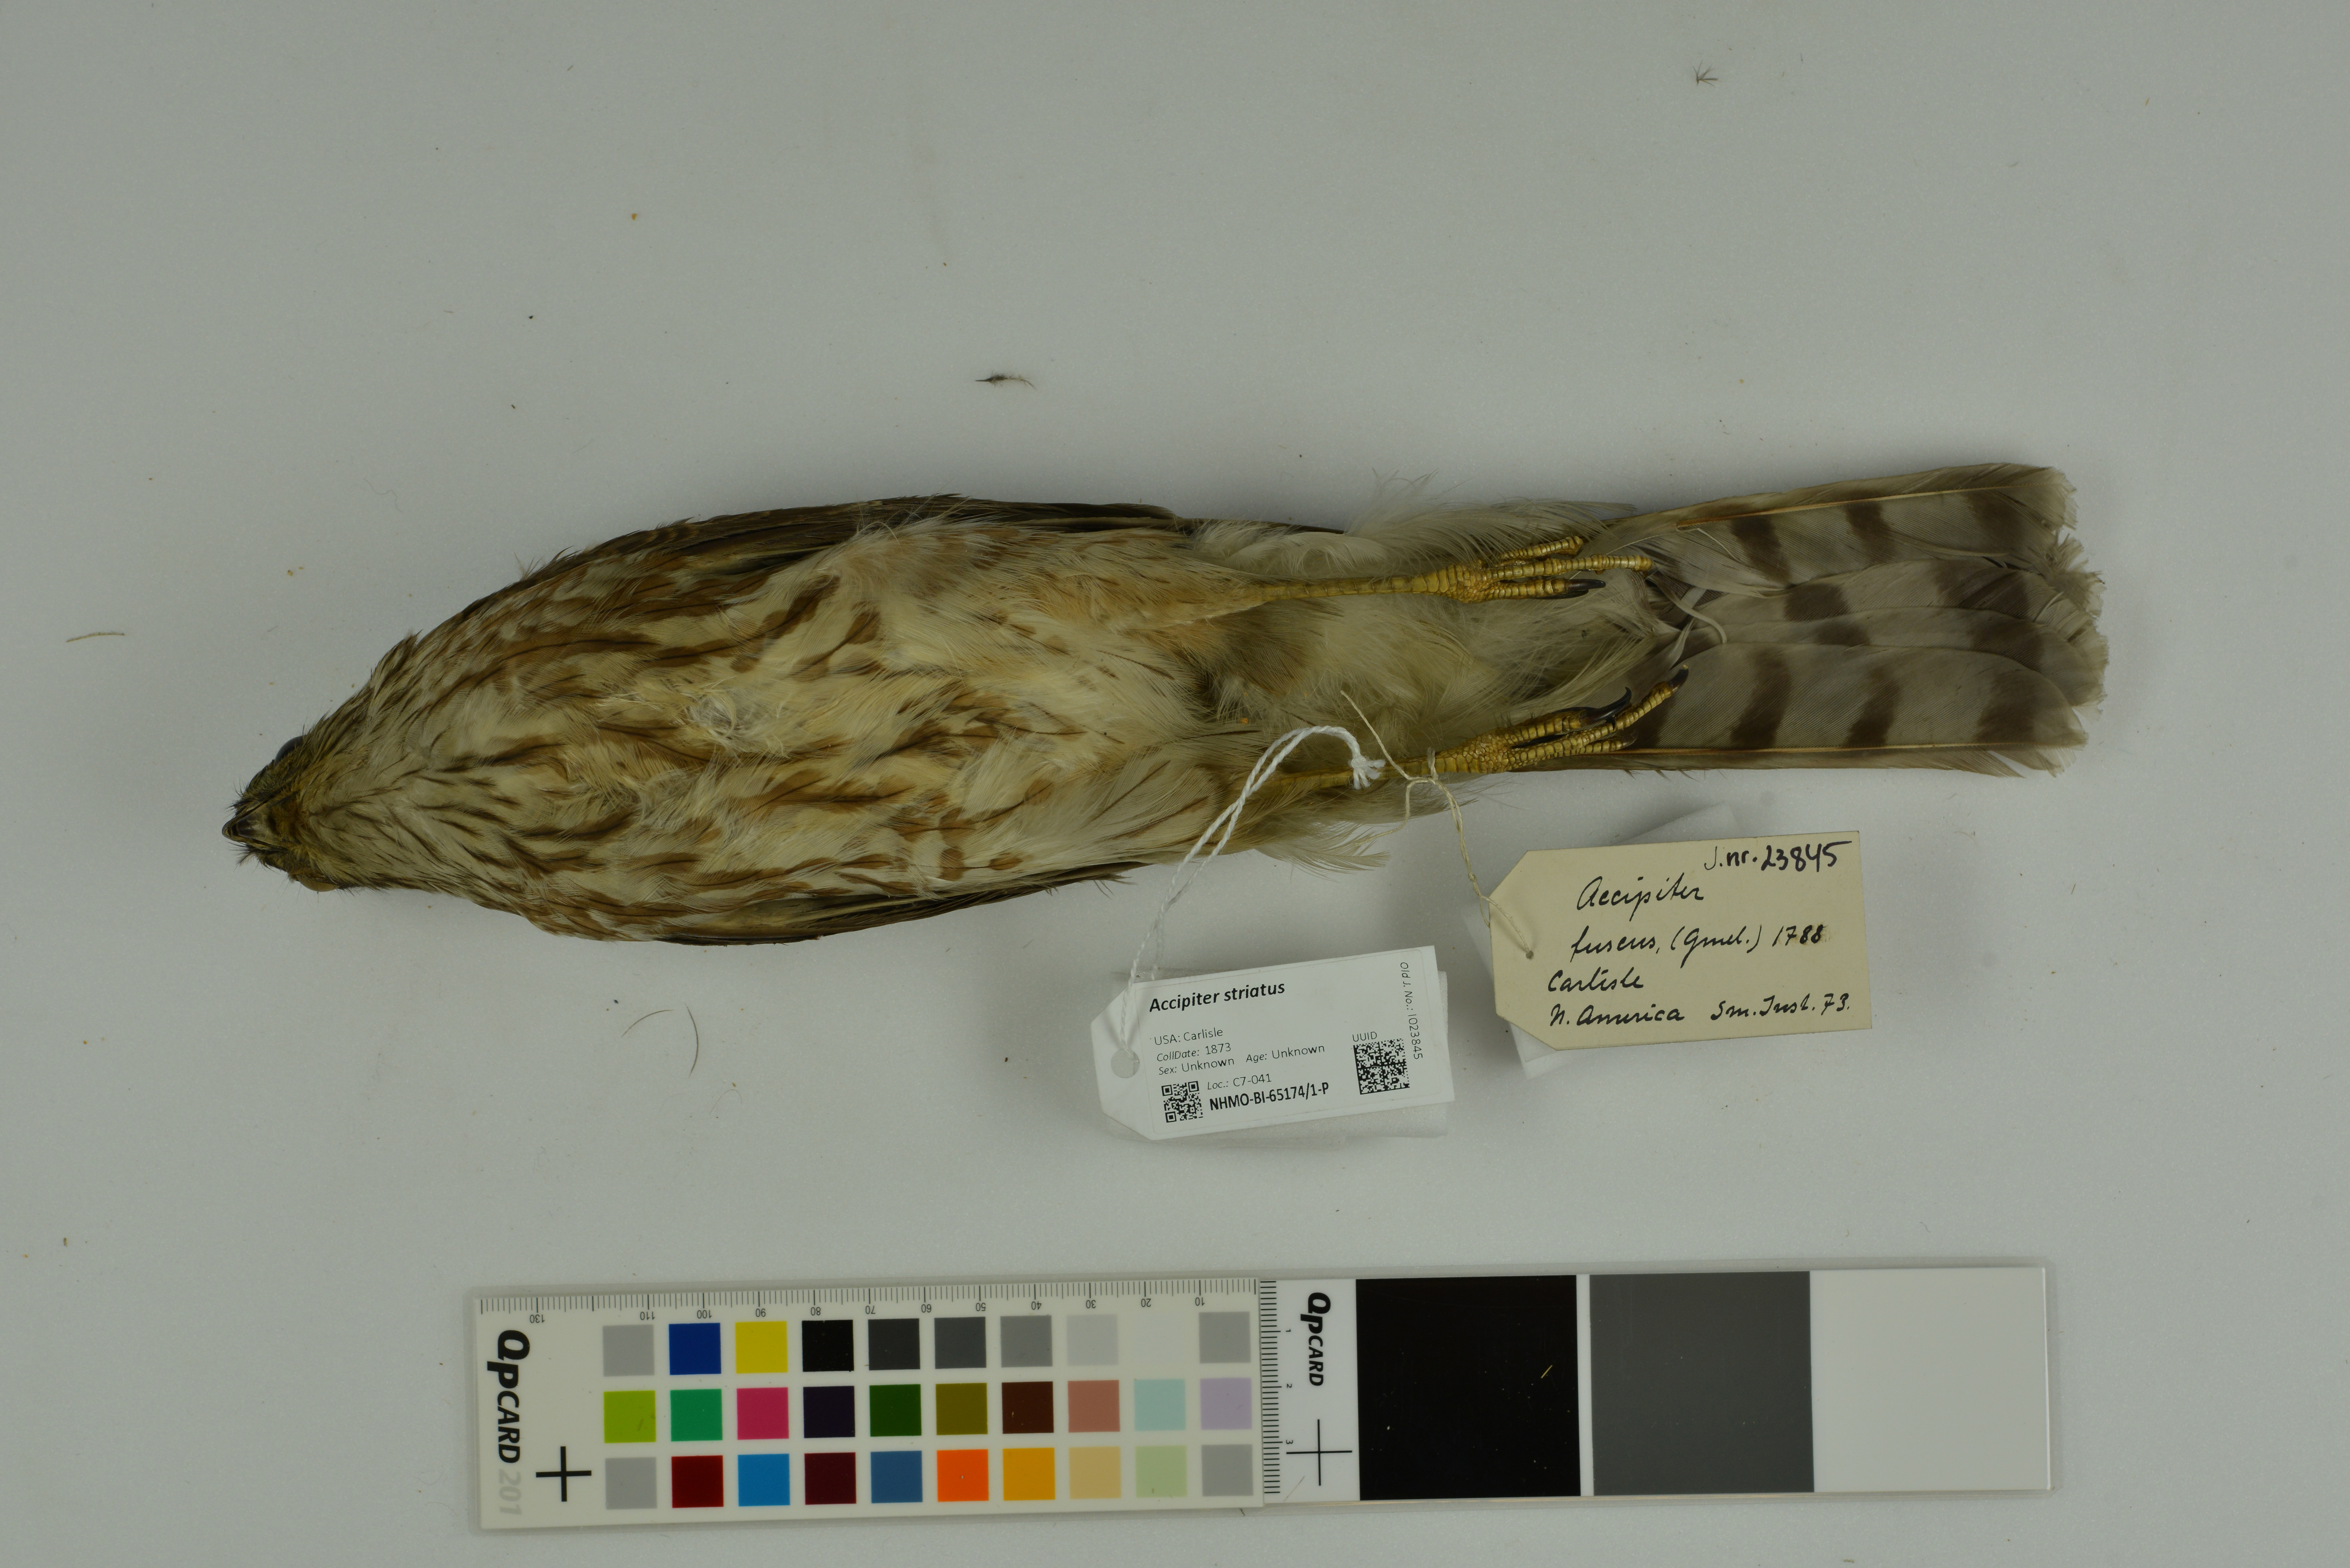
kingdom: Animalia
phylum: Chordata
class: Aves
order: Accipitriformes
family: Accipitridae
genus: Accipiter
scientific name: Accipiter striatus
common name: Sharp-shinned hawk
